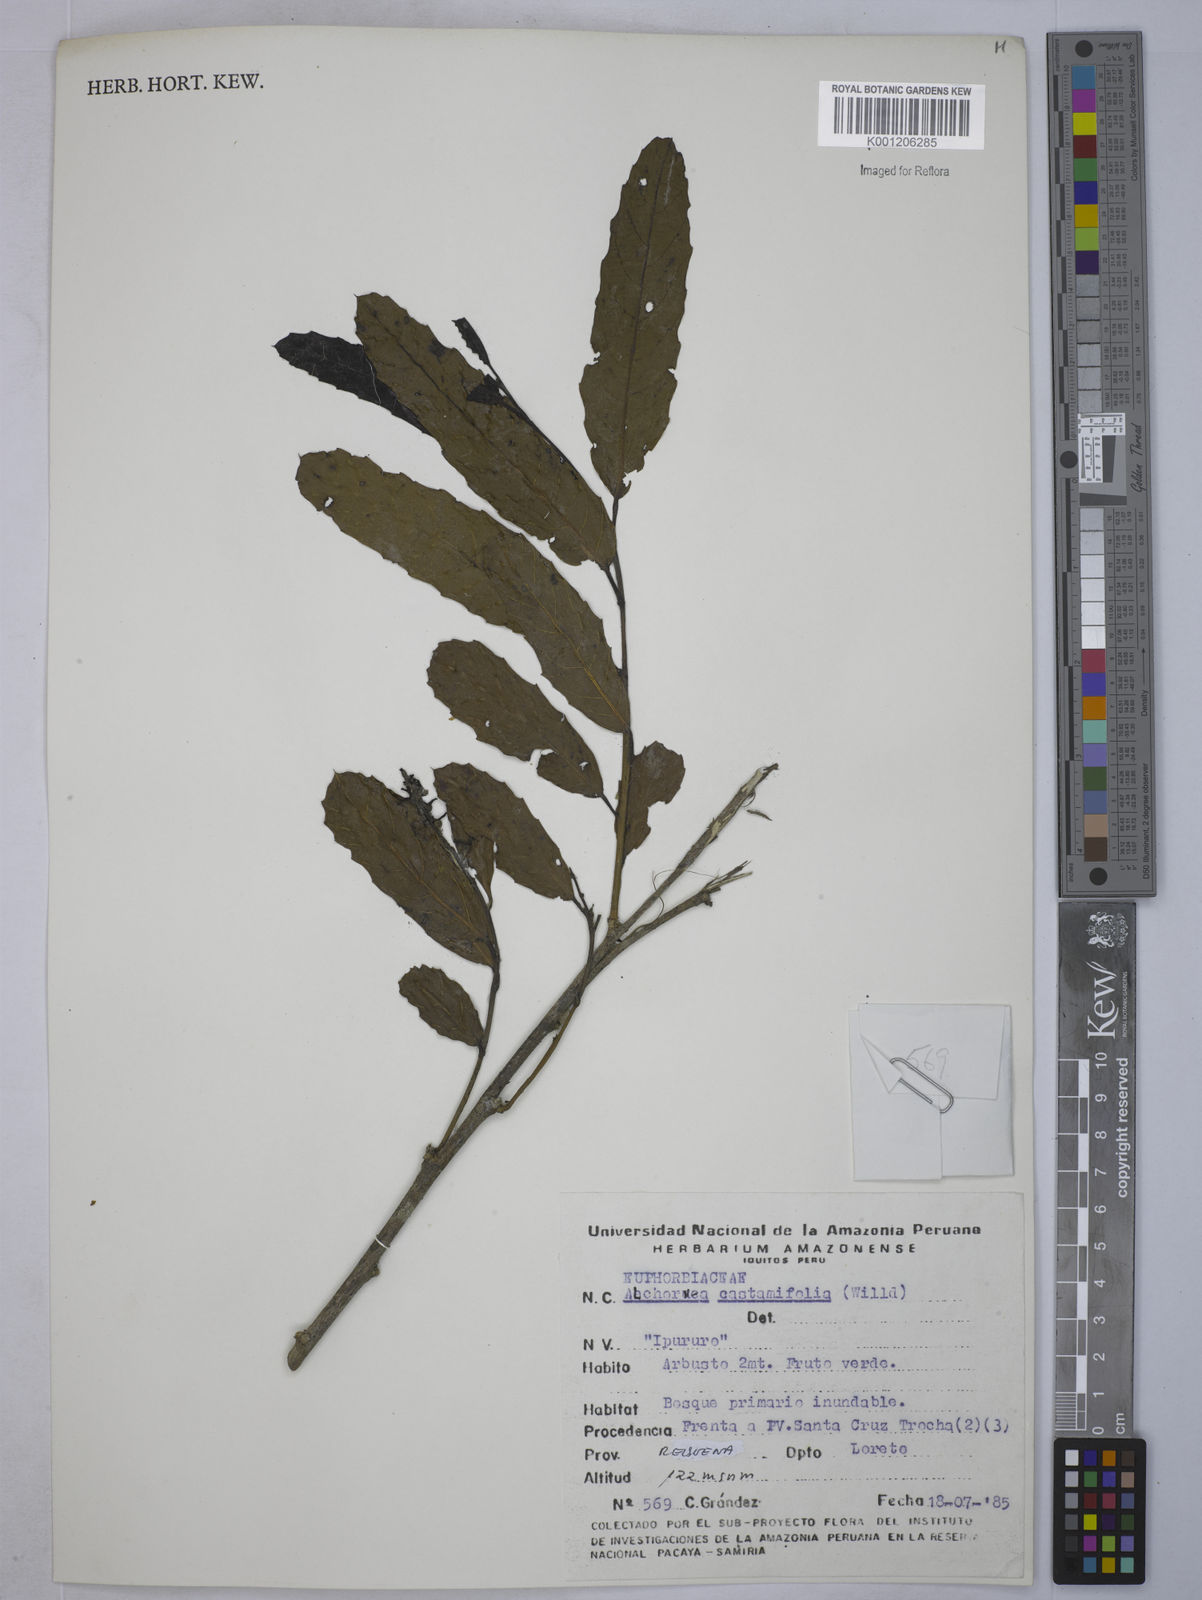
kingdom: Plantae
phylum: Tracheophyta
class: Magnoliopsida
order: Malpighiales
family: Euphorbiaceae
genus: Alchornea
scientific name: Alchornea castaneifolia
